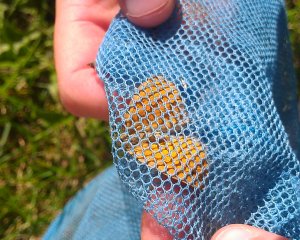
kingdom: Animalia
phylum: Arthropoda
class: Insecta
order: Lepidoptera
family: Nymphalidae
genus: Coenonympha
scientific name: Coenonympha tullia
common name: Large Heath
